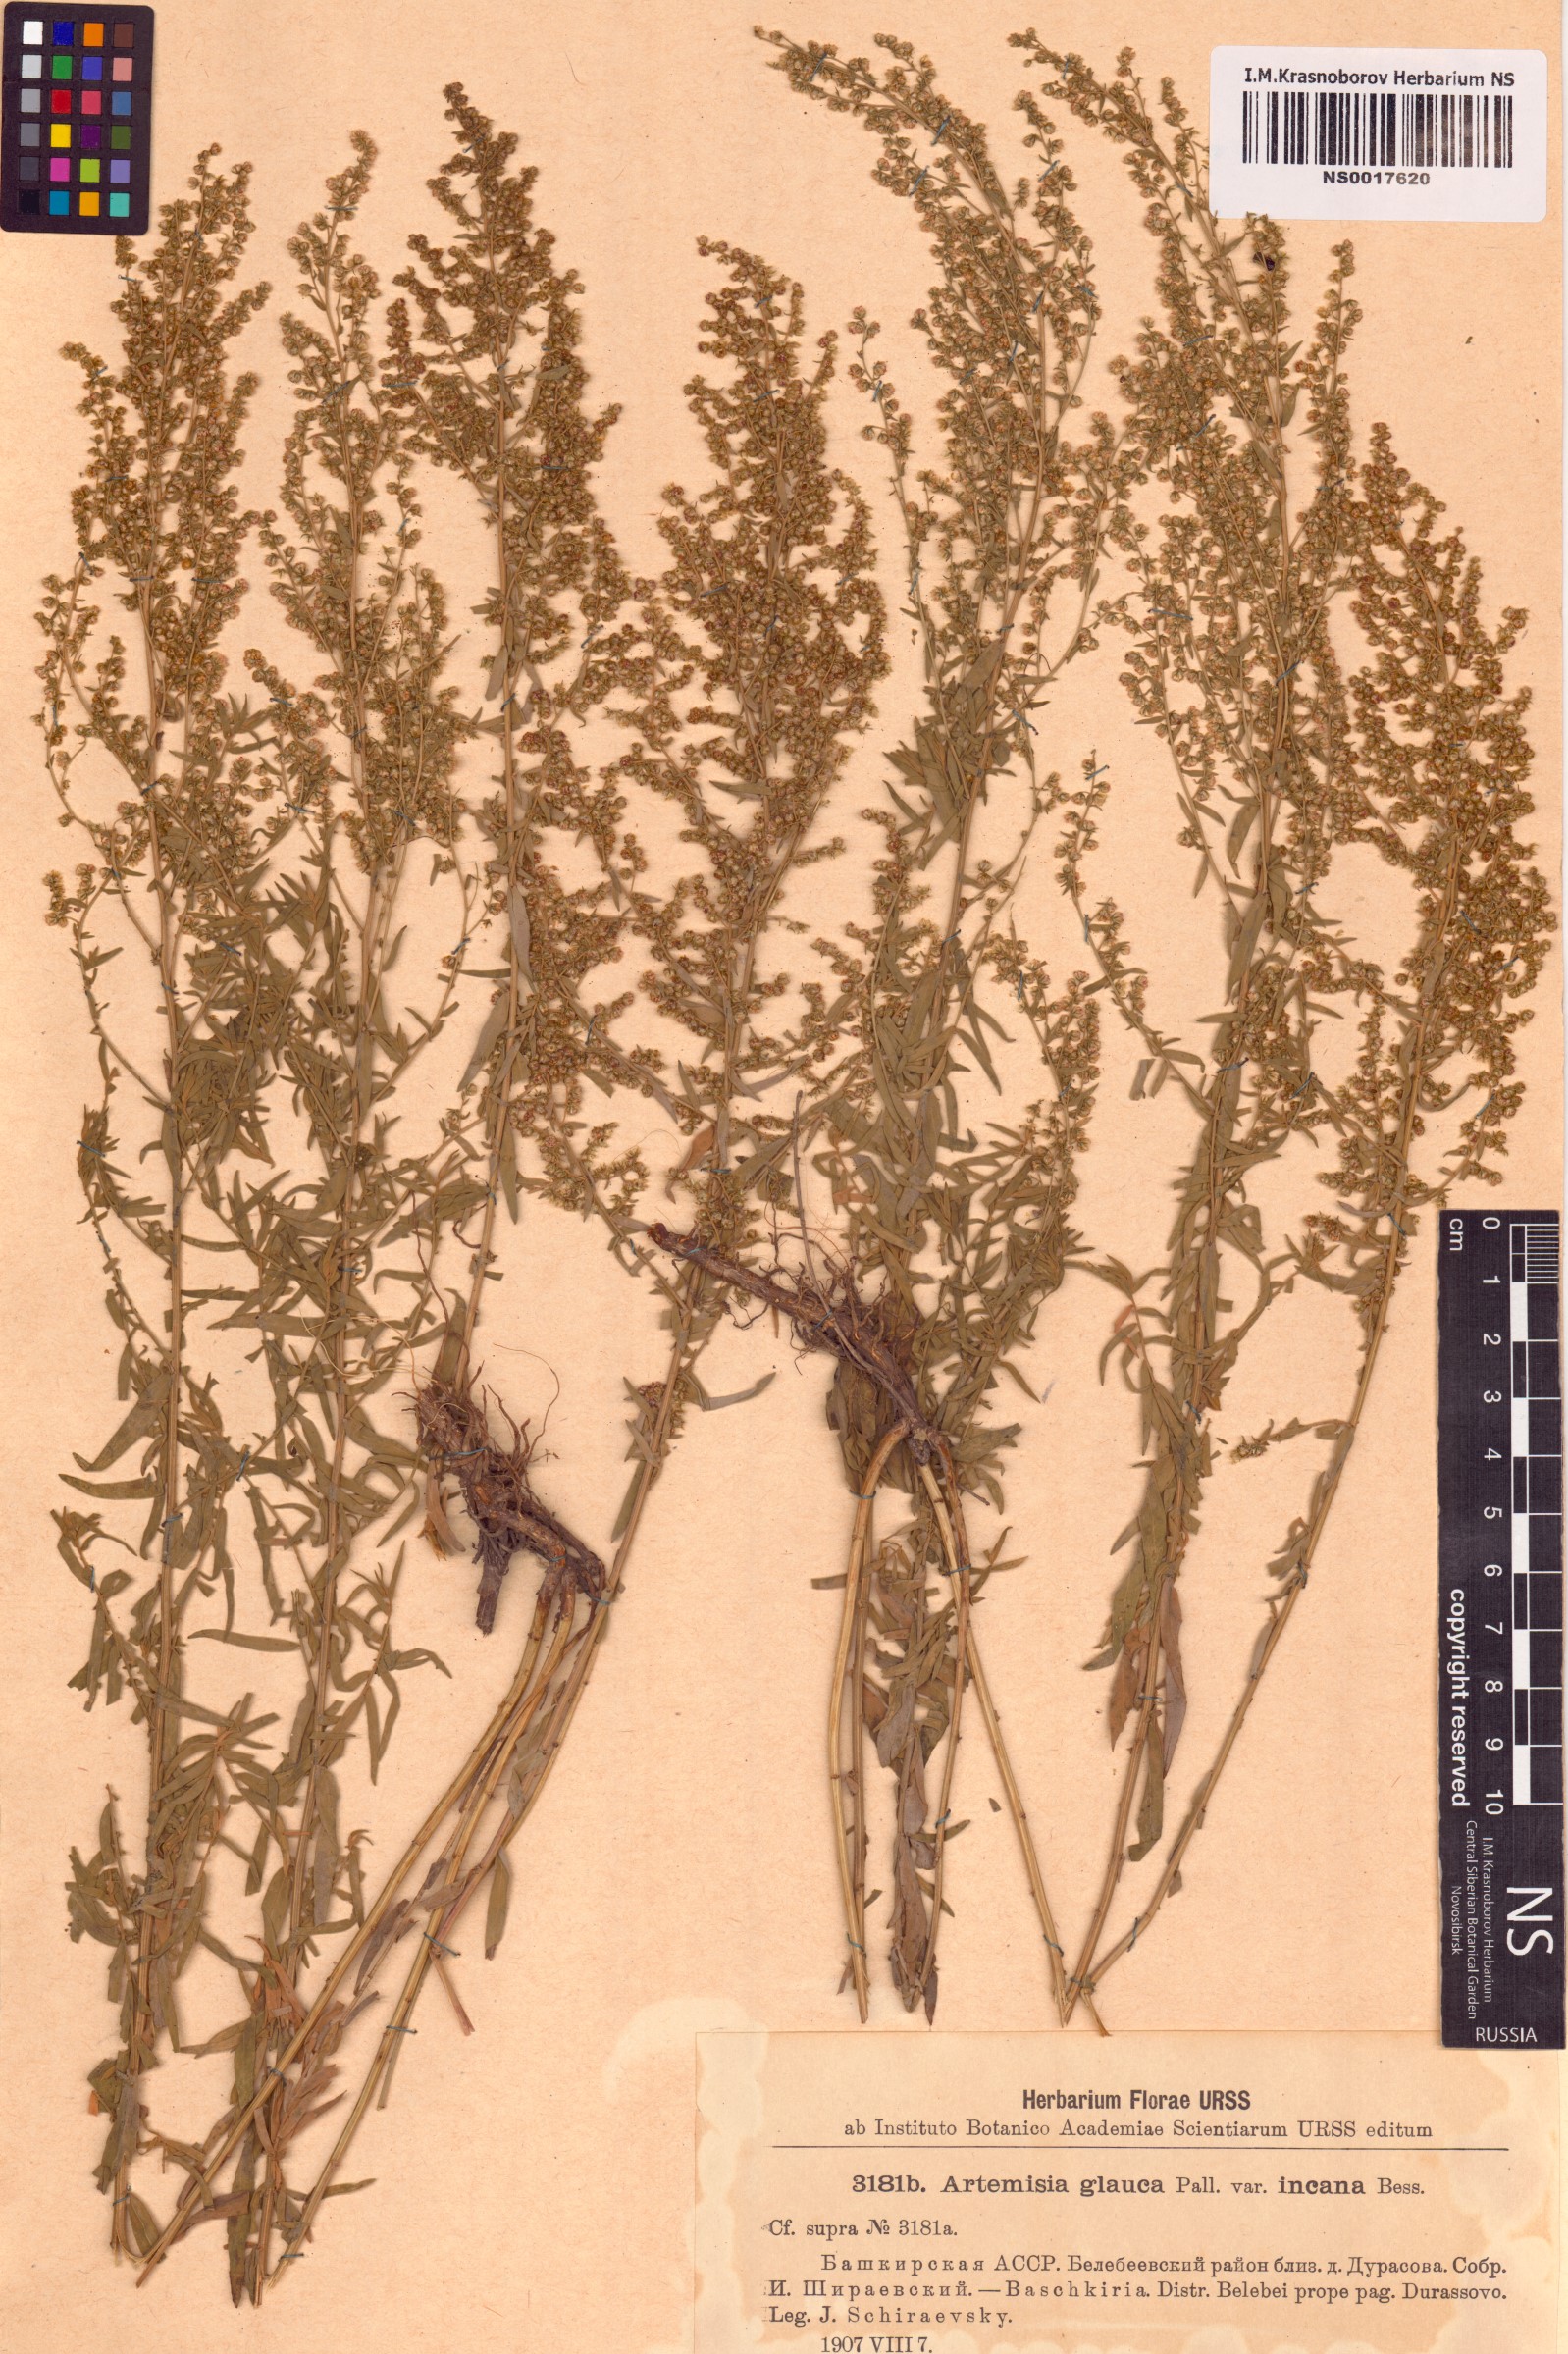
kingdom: Plantae
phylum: Tracheophyta
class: Magnoliopsida
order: Asterales
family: Asteraceae
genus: Artemisia
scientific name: Artemisia ammaniana
